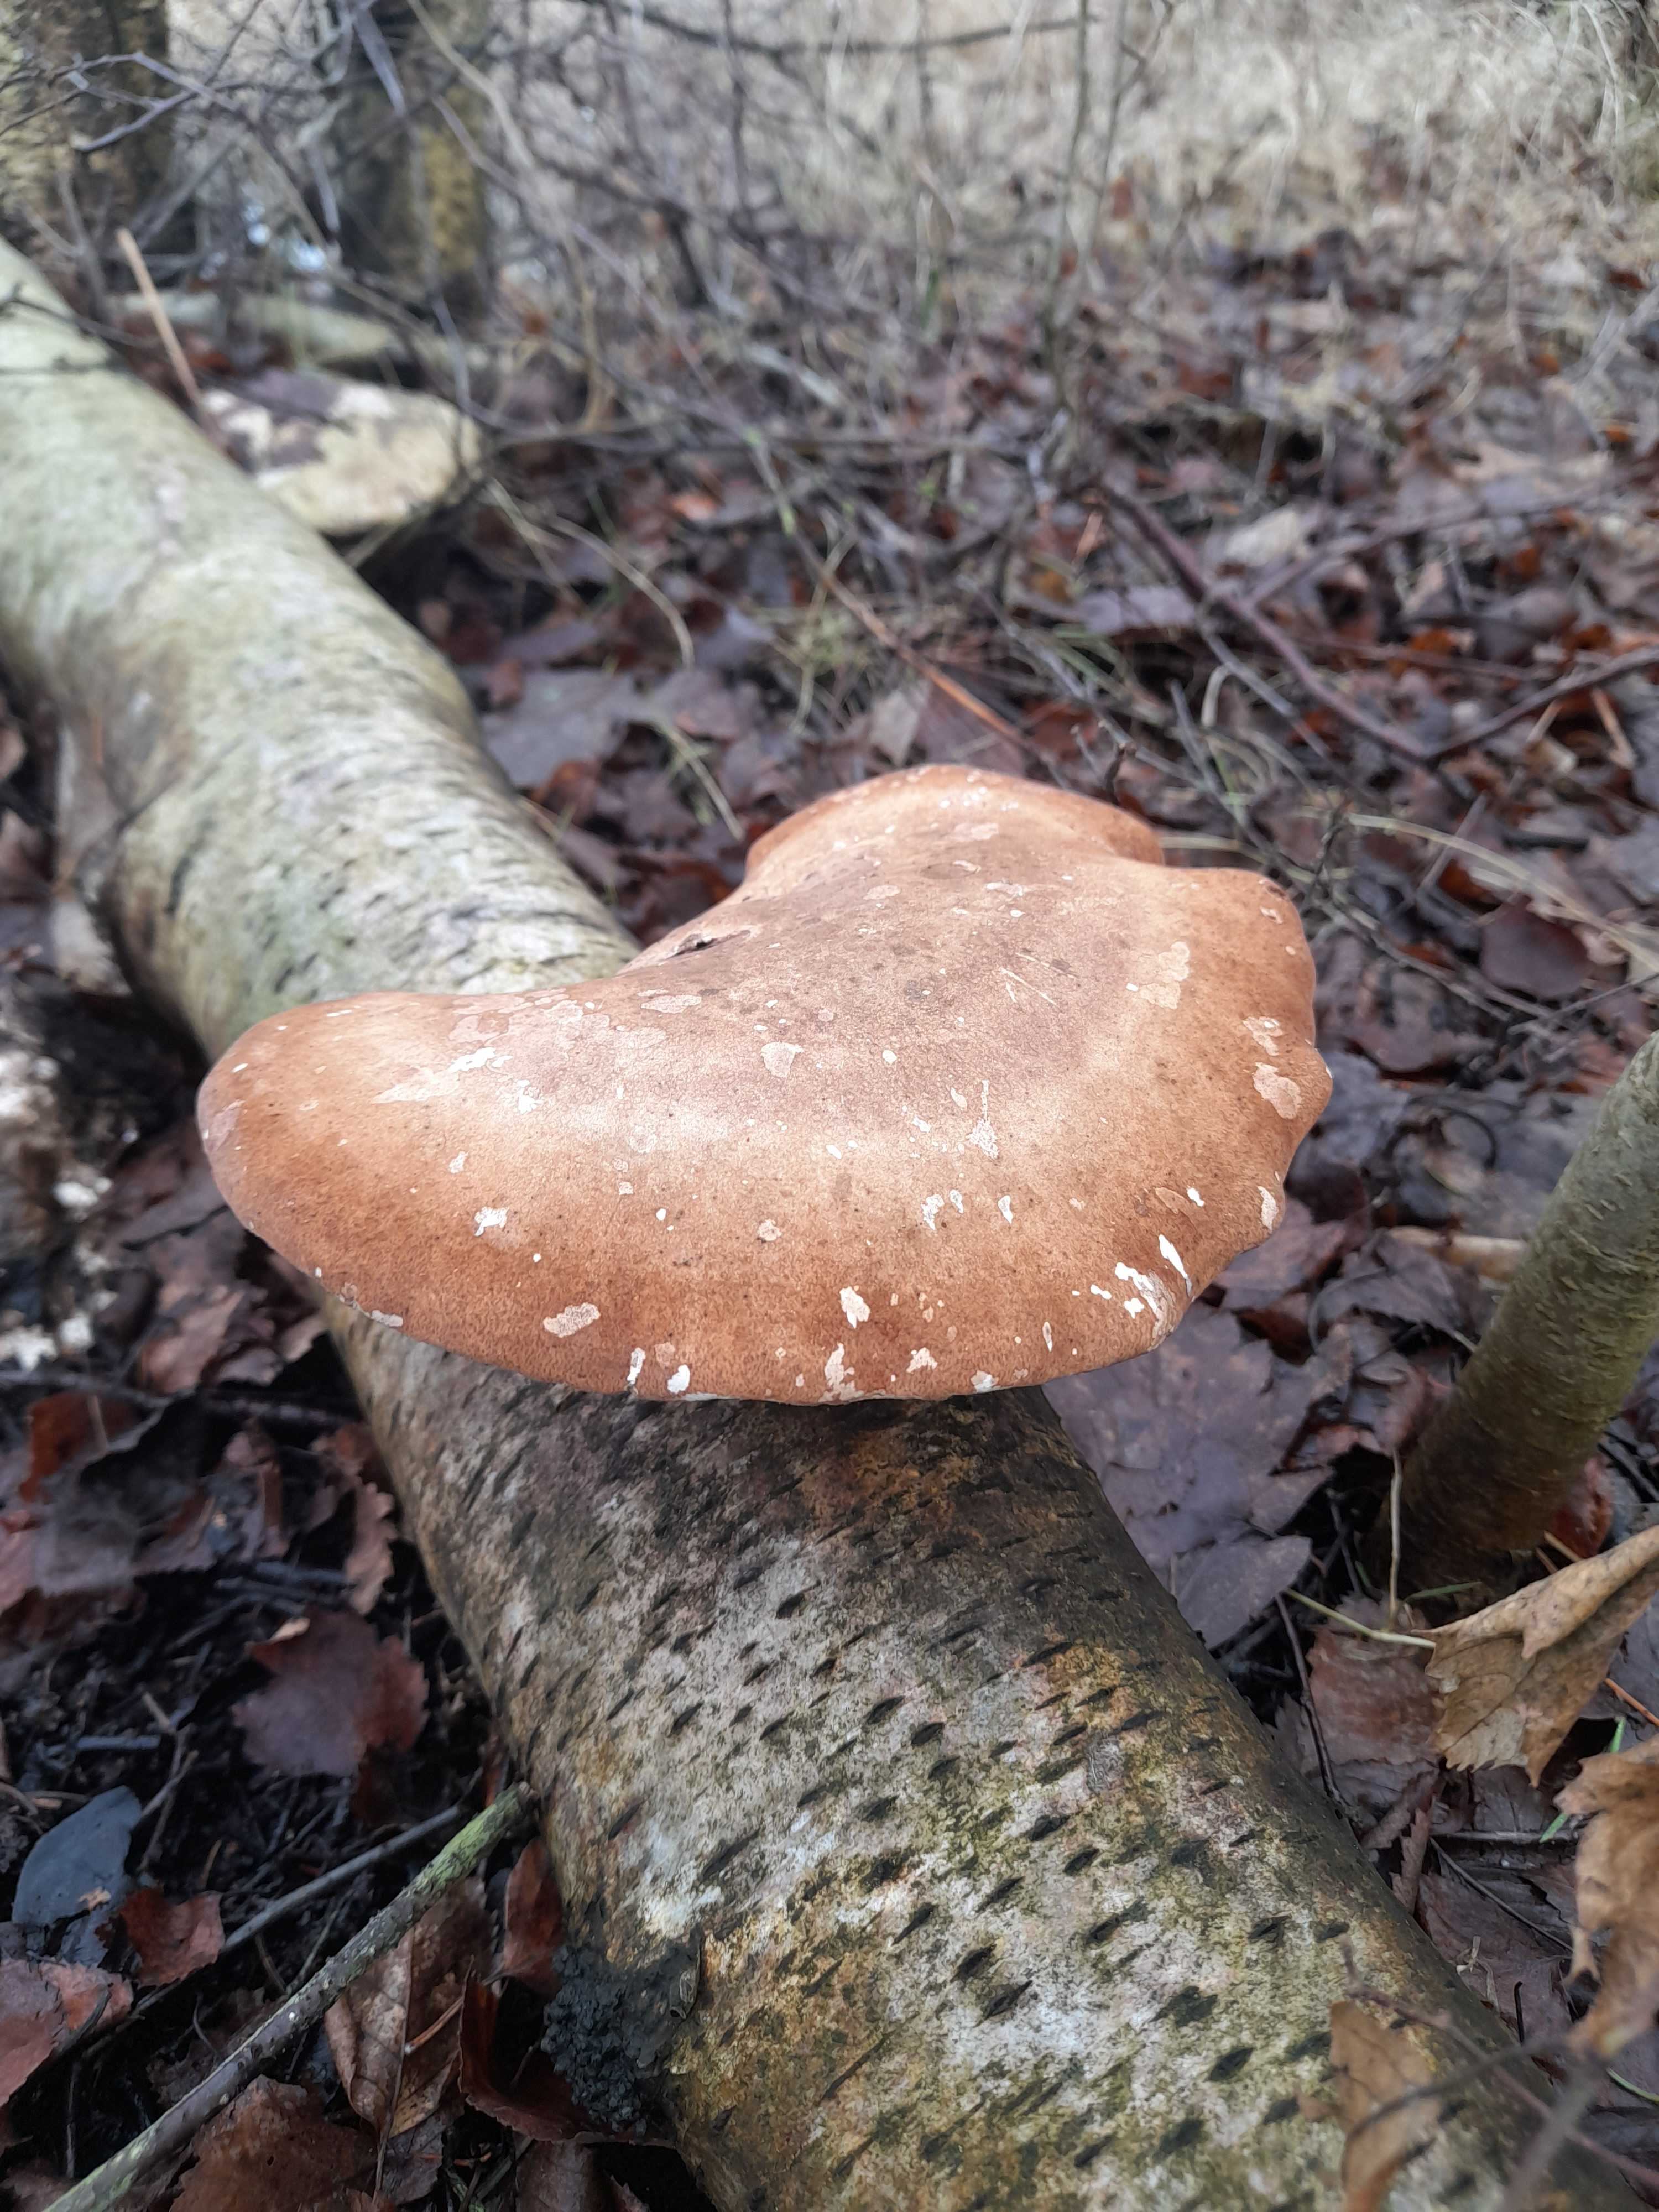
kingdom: Fungi
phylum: Basidiomycota
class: Agaricomycetes
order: Polyporales
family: Fomitopsidaceae
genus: Fomitopsis
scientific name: Fomitopsis betulina
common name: birkeporesvamp
